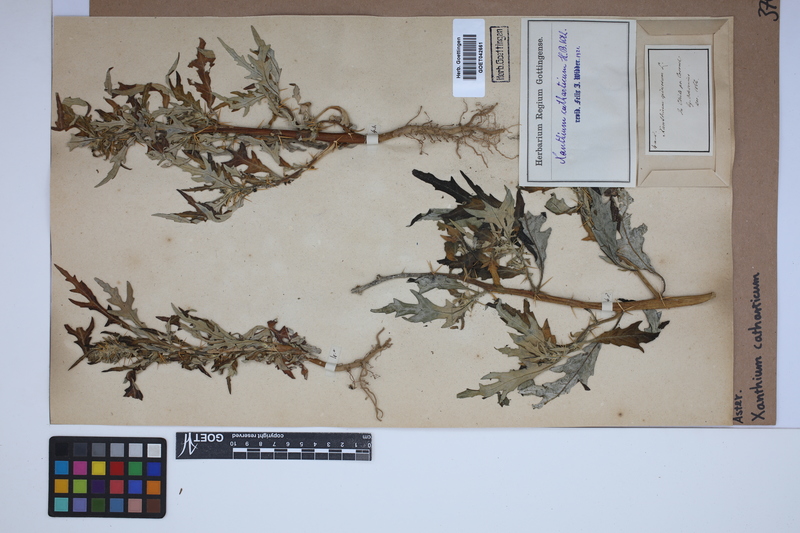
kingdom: Plantae
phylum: Tracheophyta
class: Magnoliopsida
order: Asterales
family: Asteraceae
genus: Xanthium
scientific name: Xanthium spinosum
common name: Spiny cocklebur
